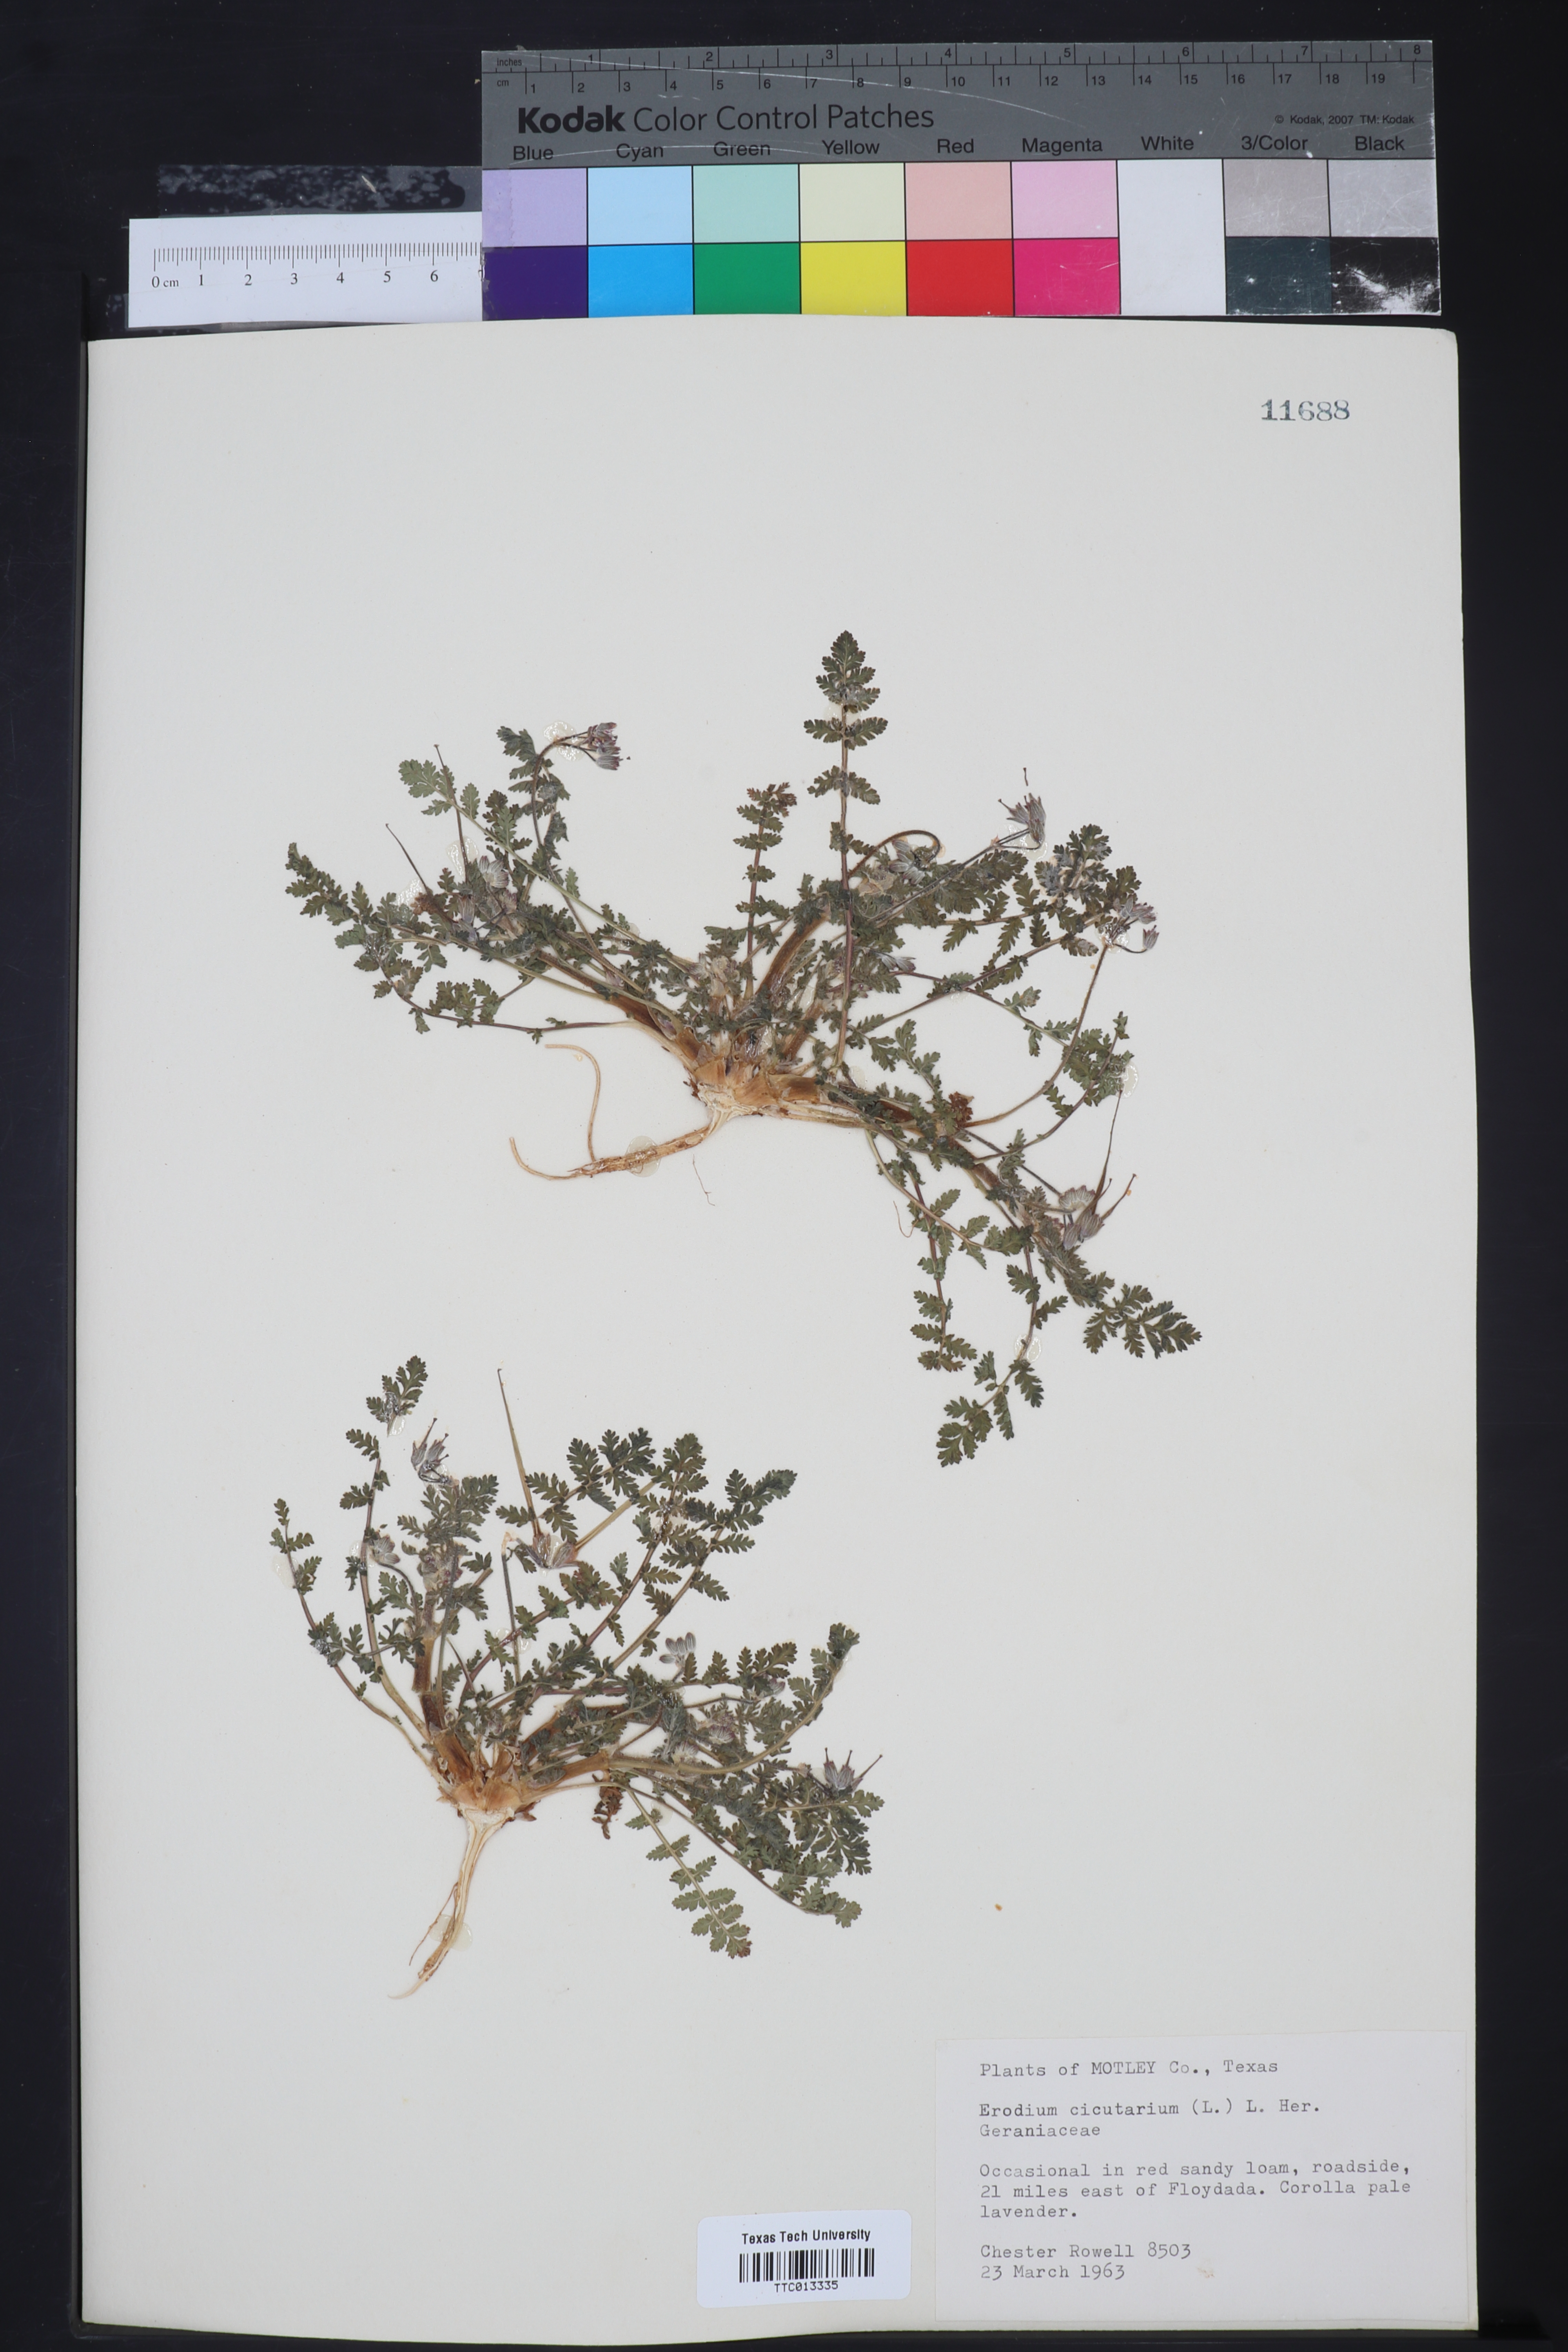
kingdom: Plantae
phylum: Tracheophyta
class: Magnoliopsida
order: Geraniales
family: Geraniaceae
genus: Erodium
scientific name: Erodium
